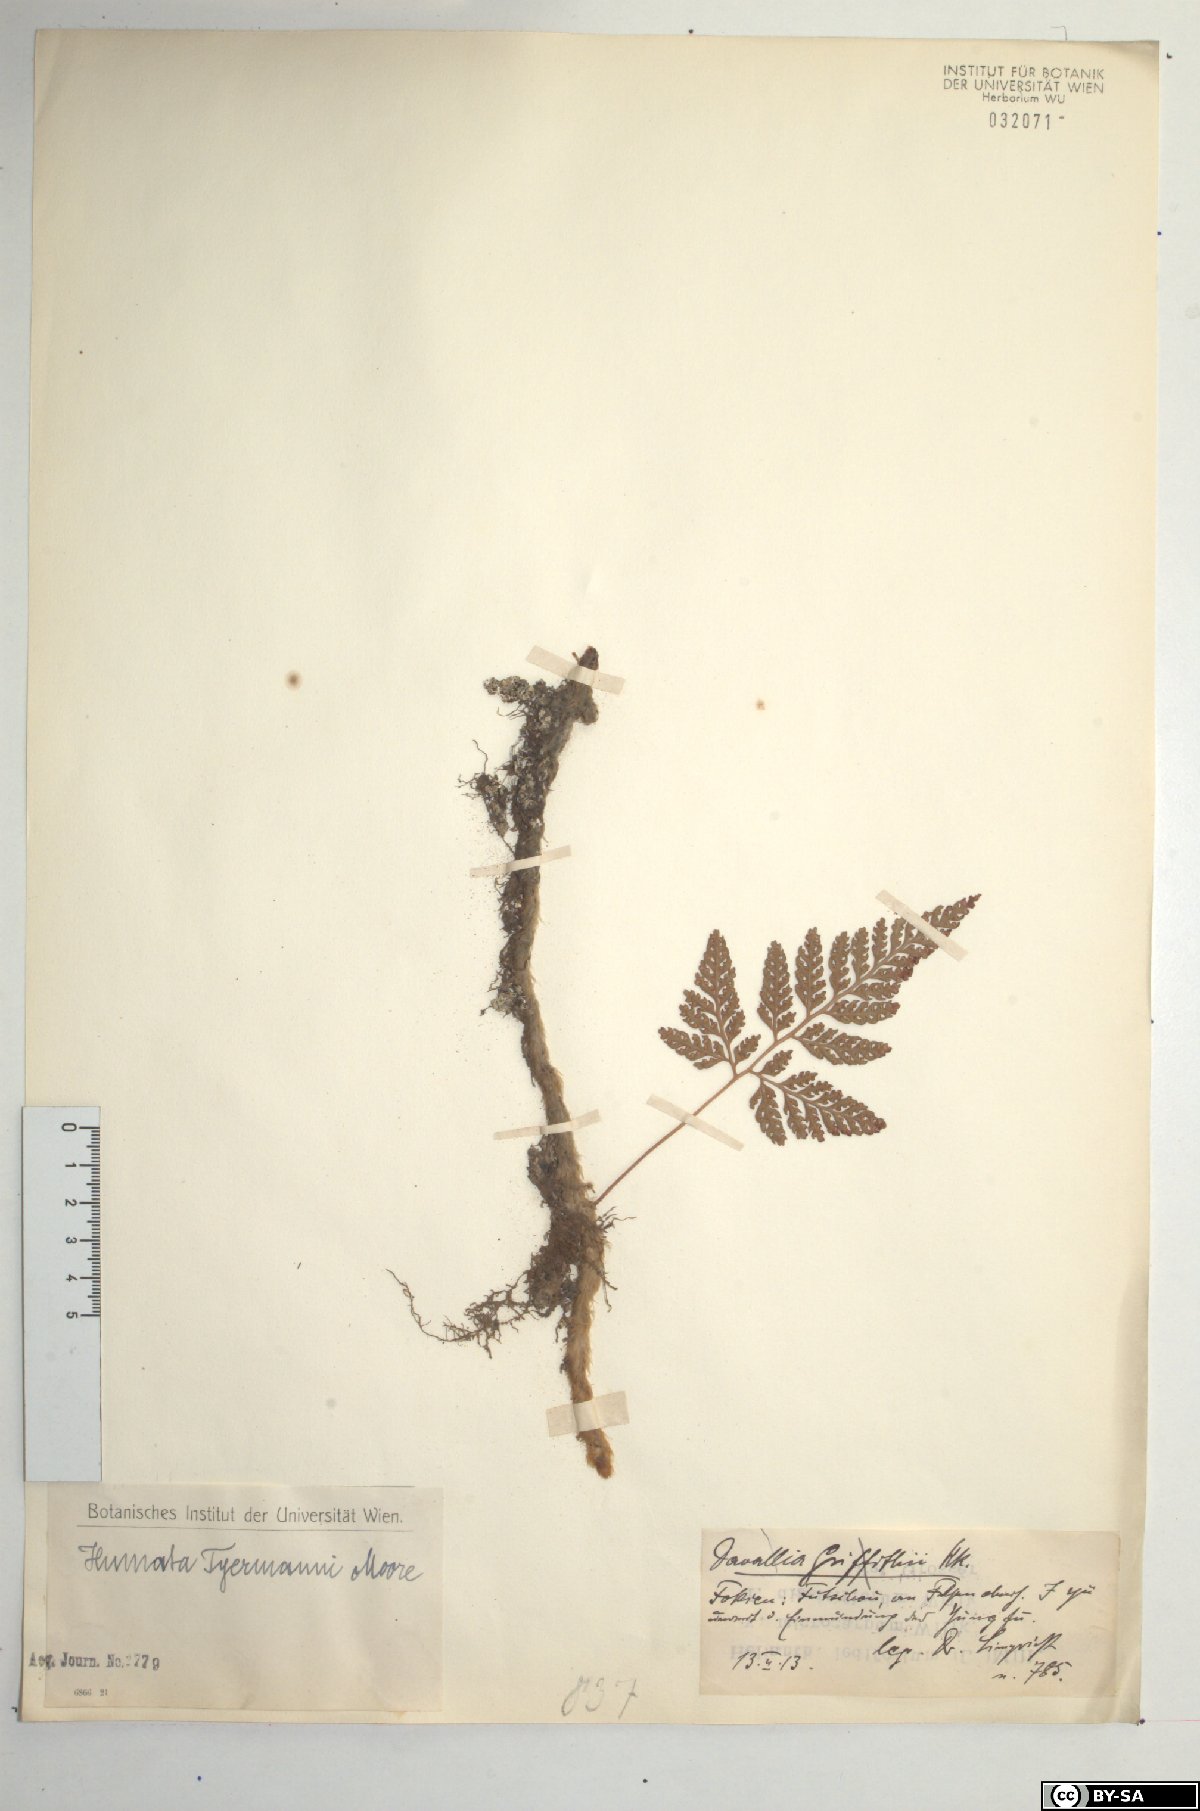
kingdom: Plantae
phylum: Tracheophyta
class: Polypodiopsida
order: Polypodiales
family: Davalliaceae
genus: Davallia
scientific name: Davallia tyermannii
